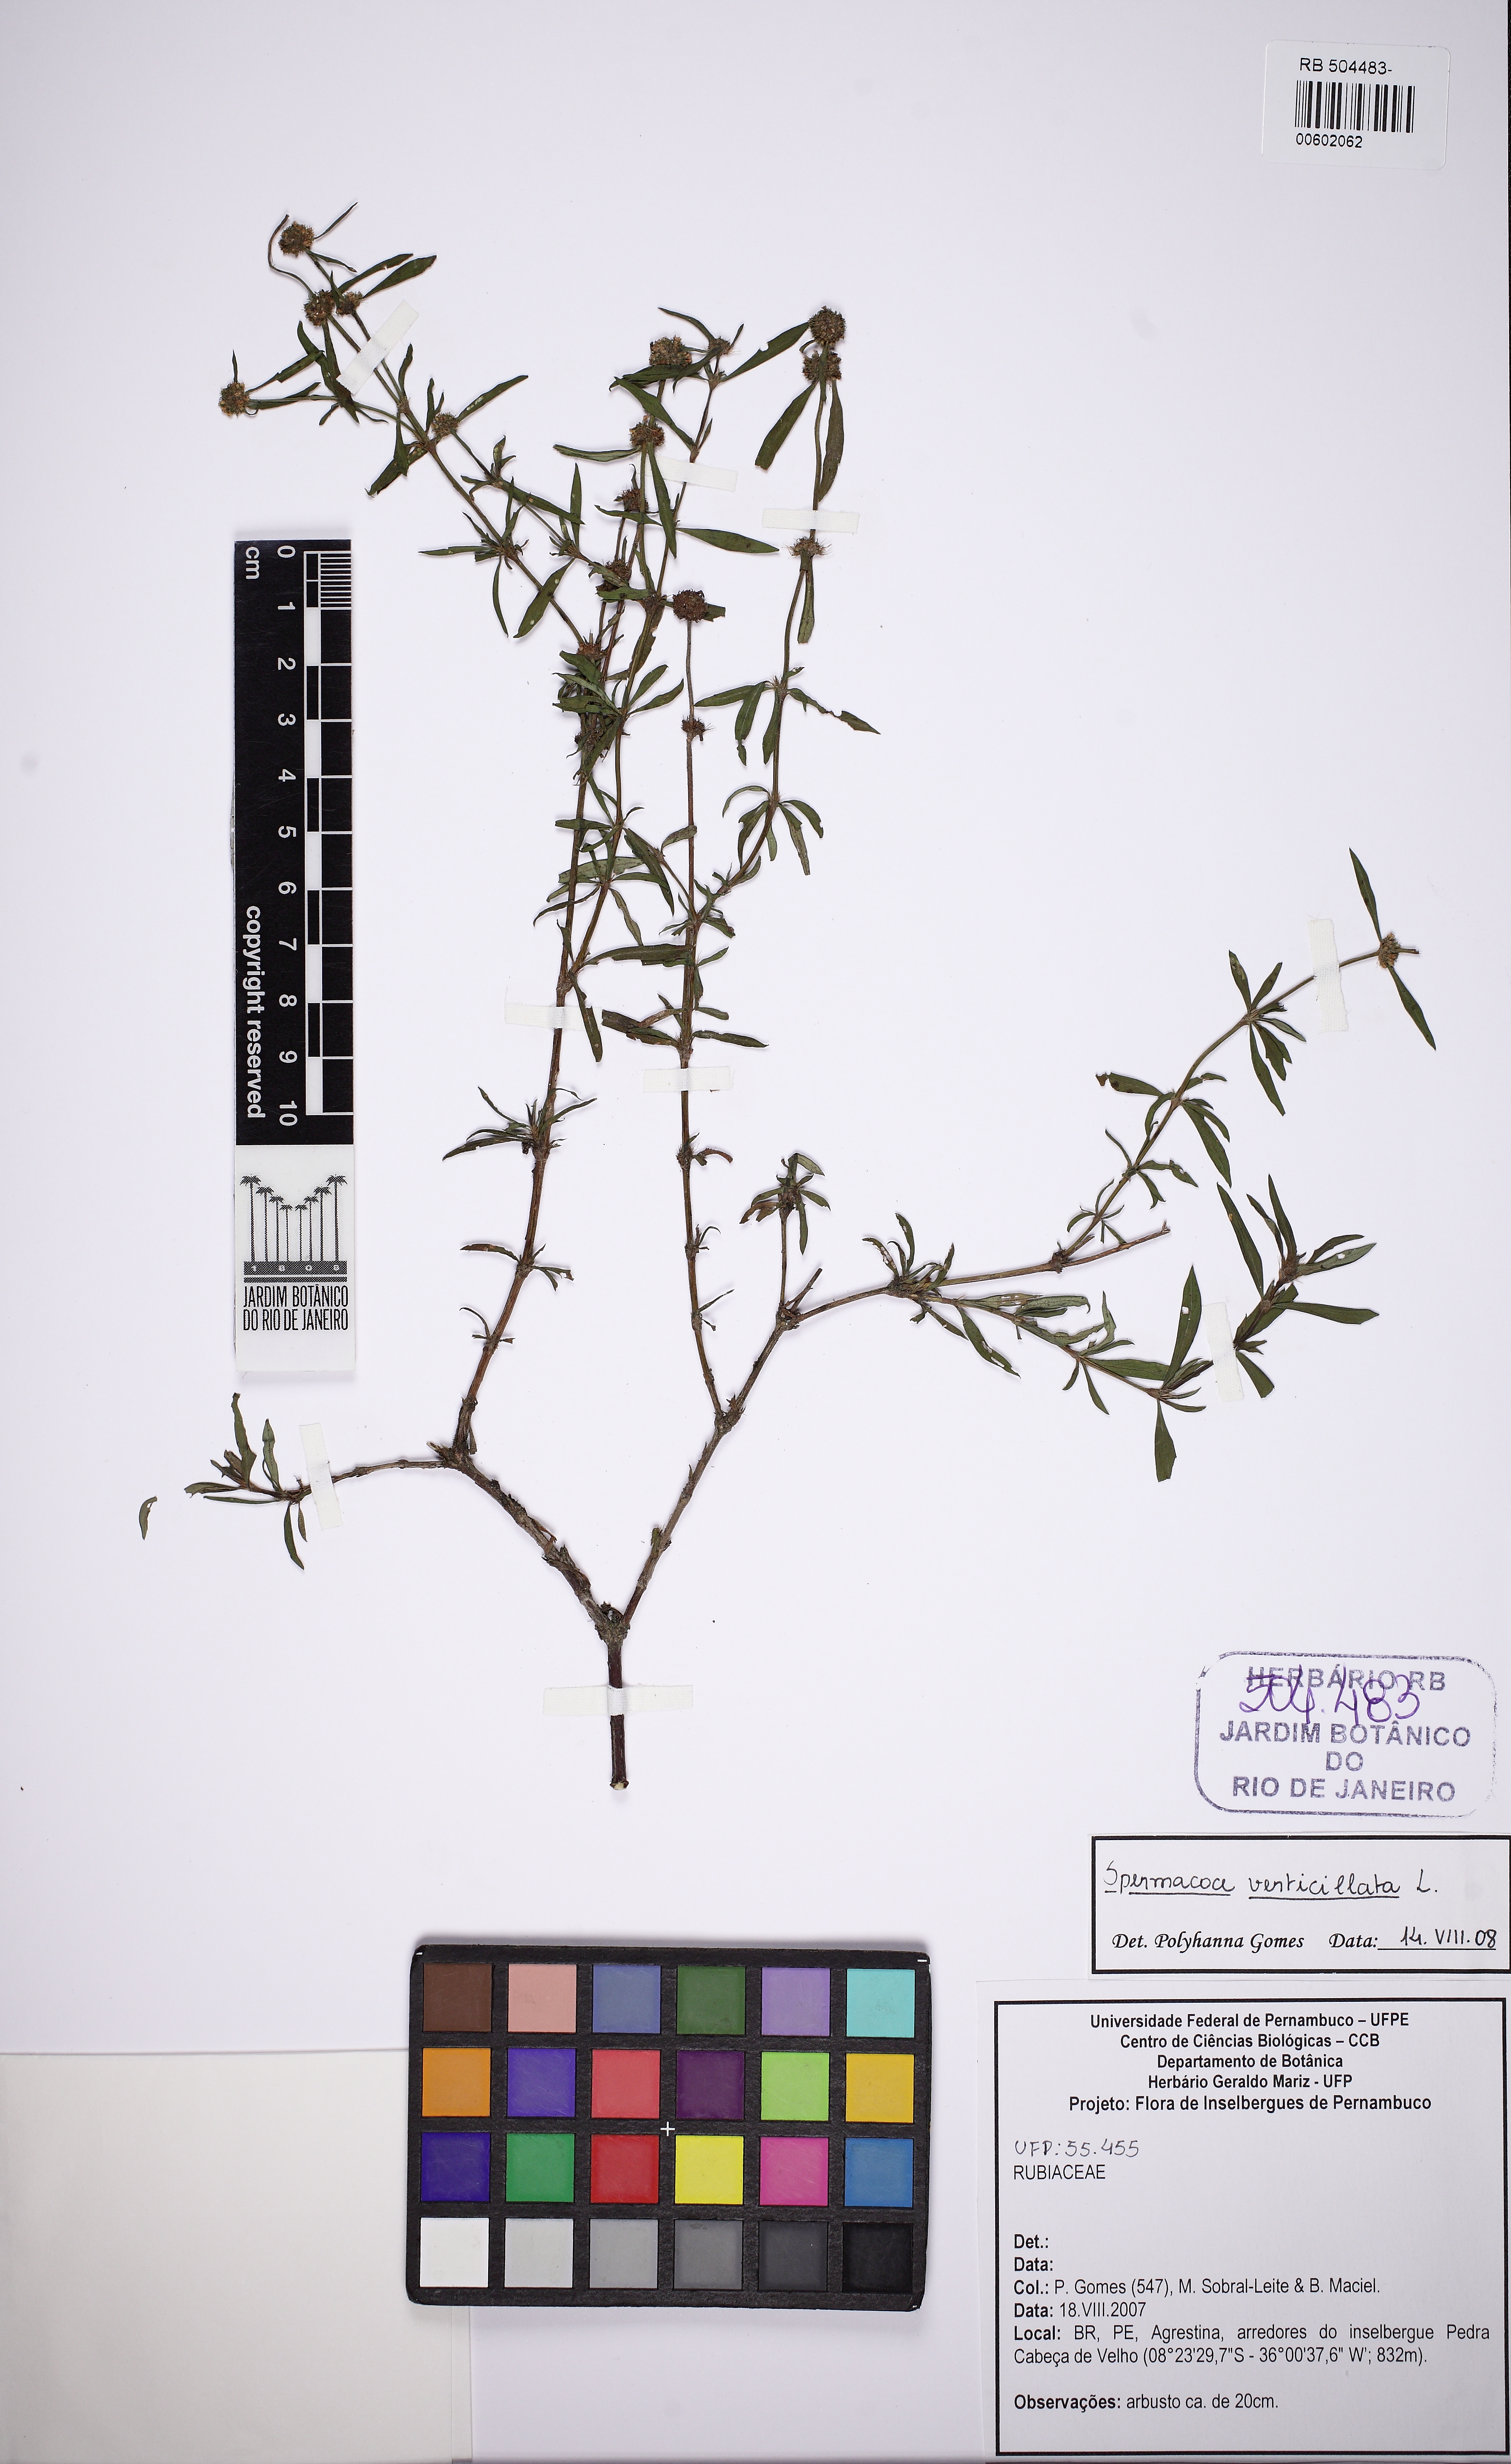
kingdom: Plantae
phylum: Tracheophyta
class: Magnoliopsida
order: Gentianales
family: Rubiaceae
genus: Spermacoce
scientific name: Spermacoce verticillata
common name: Shrubby false buttonweed
